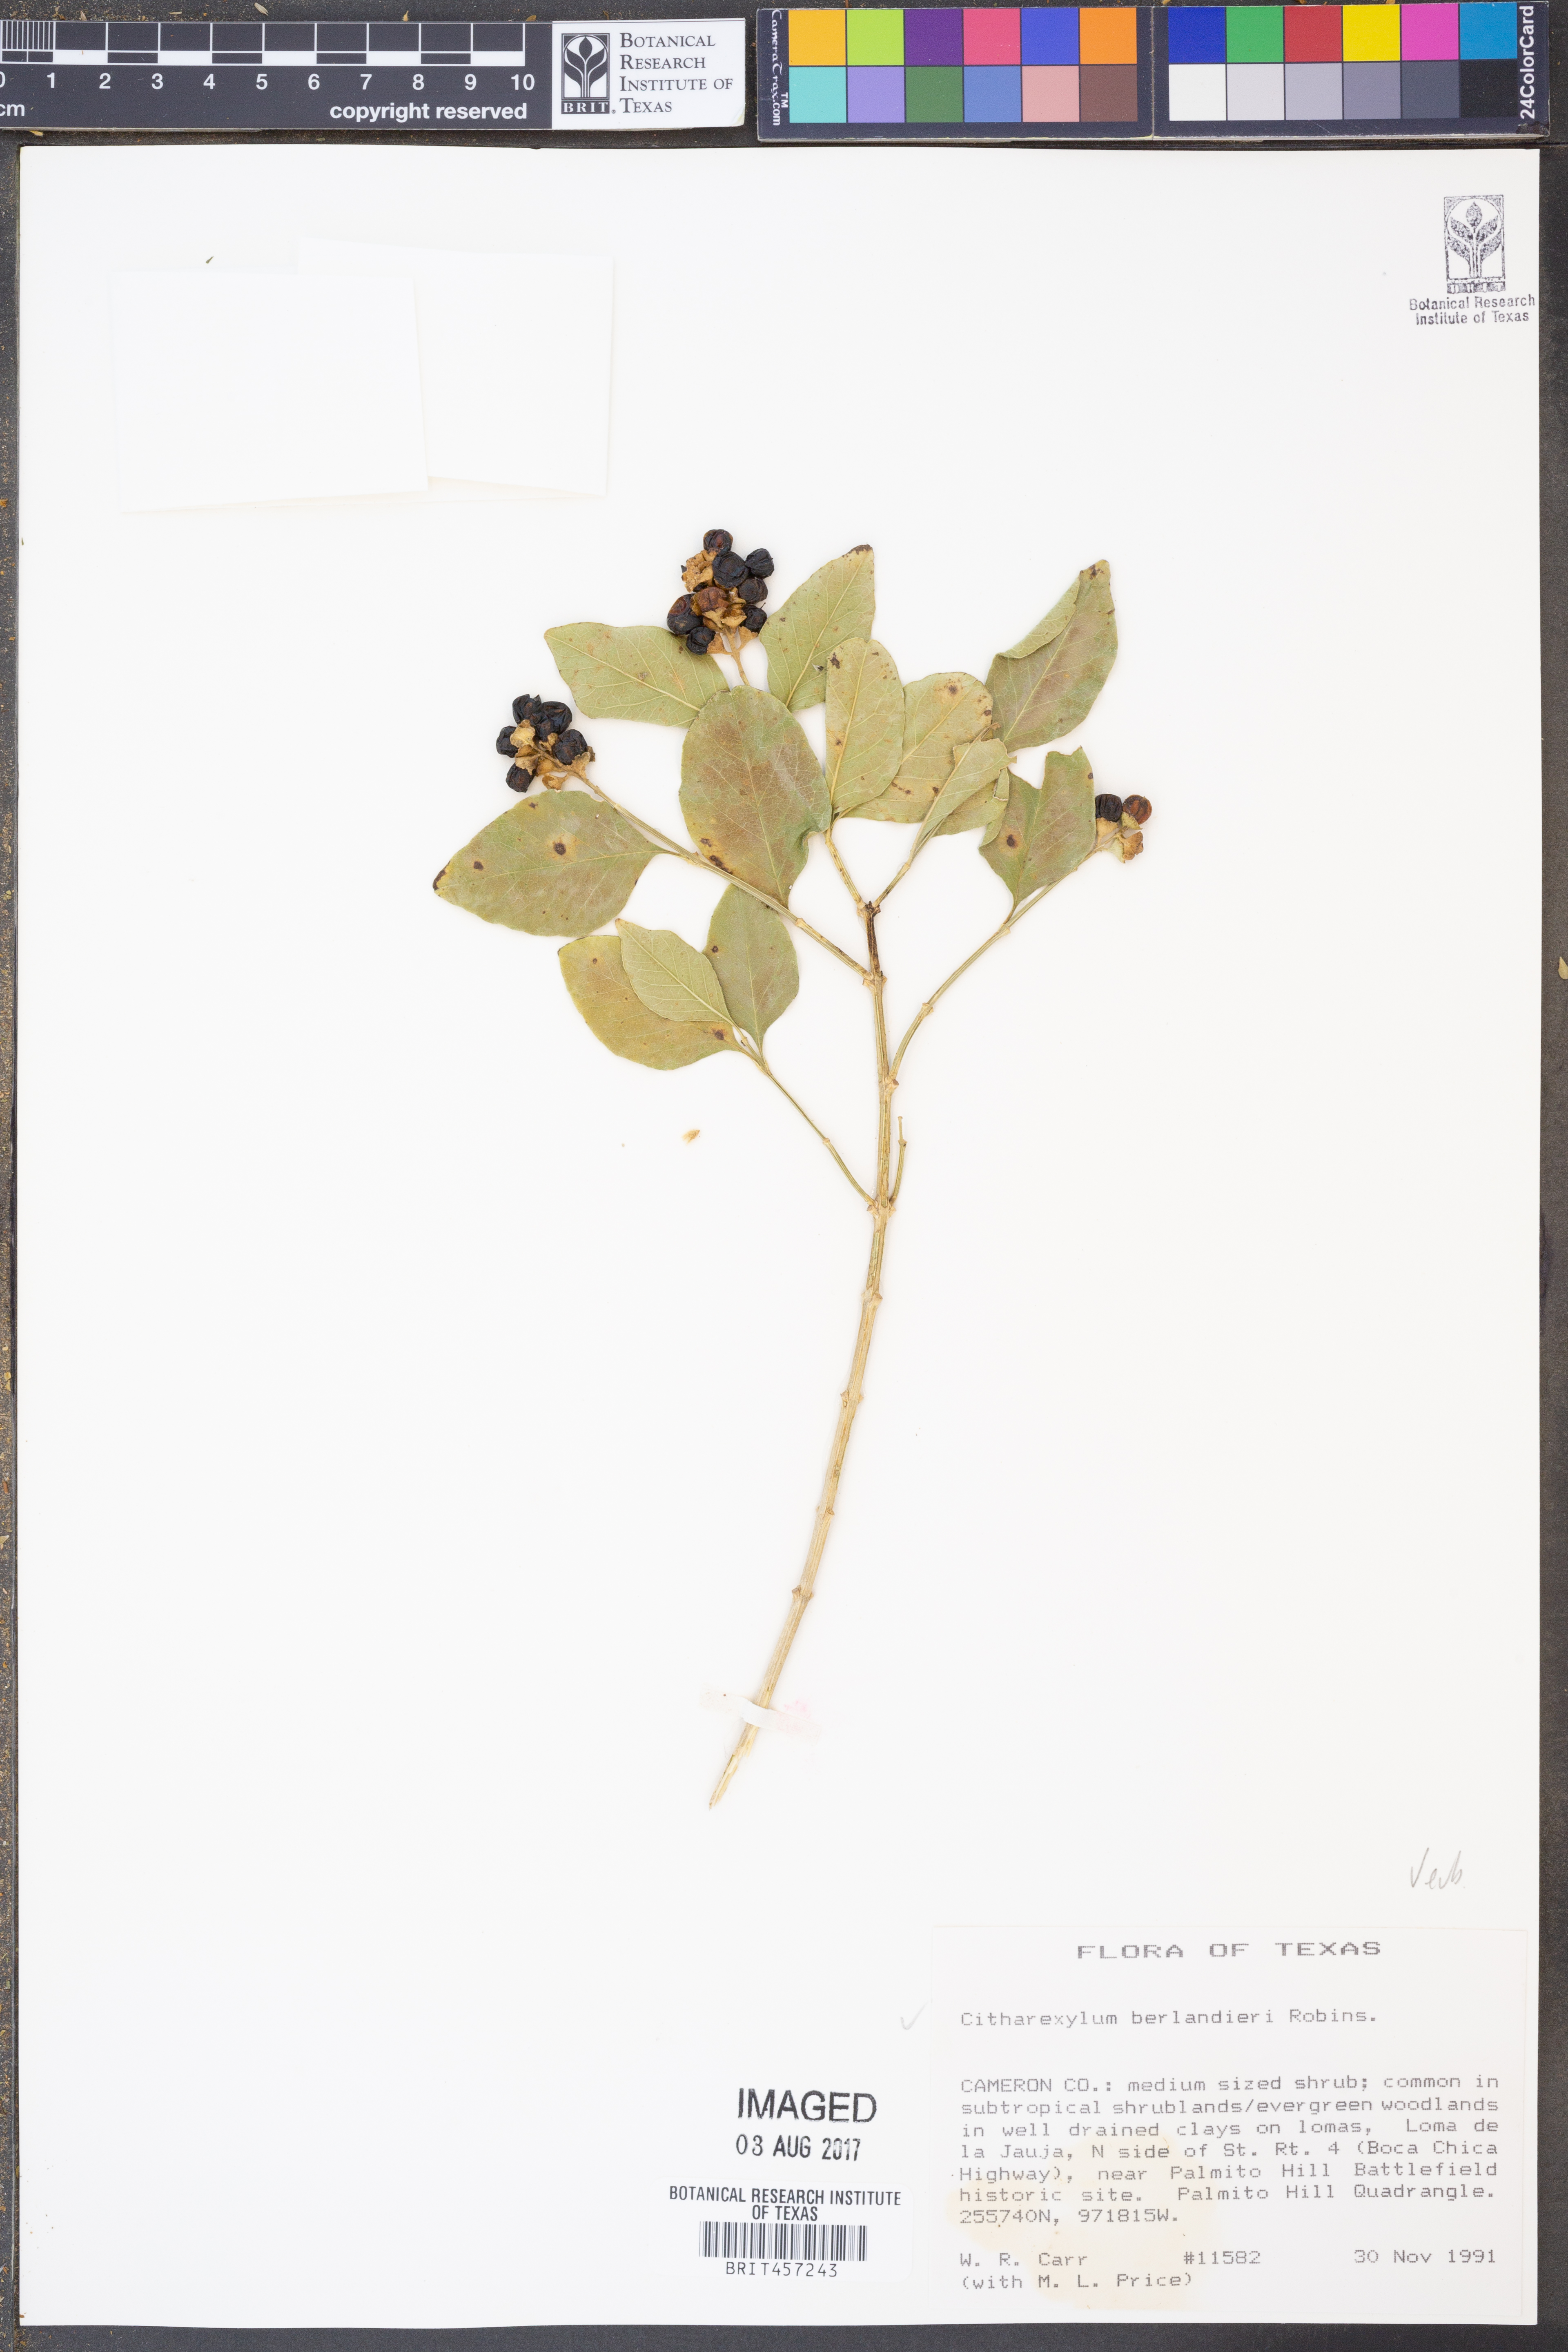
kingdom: Plantae
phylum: Tracheophyta
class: Magnoliopsida
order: Lamiales
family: Verbenaceae
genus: Citharexylum
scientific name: Citharexylum berlandieri
